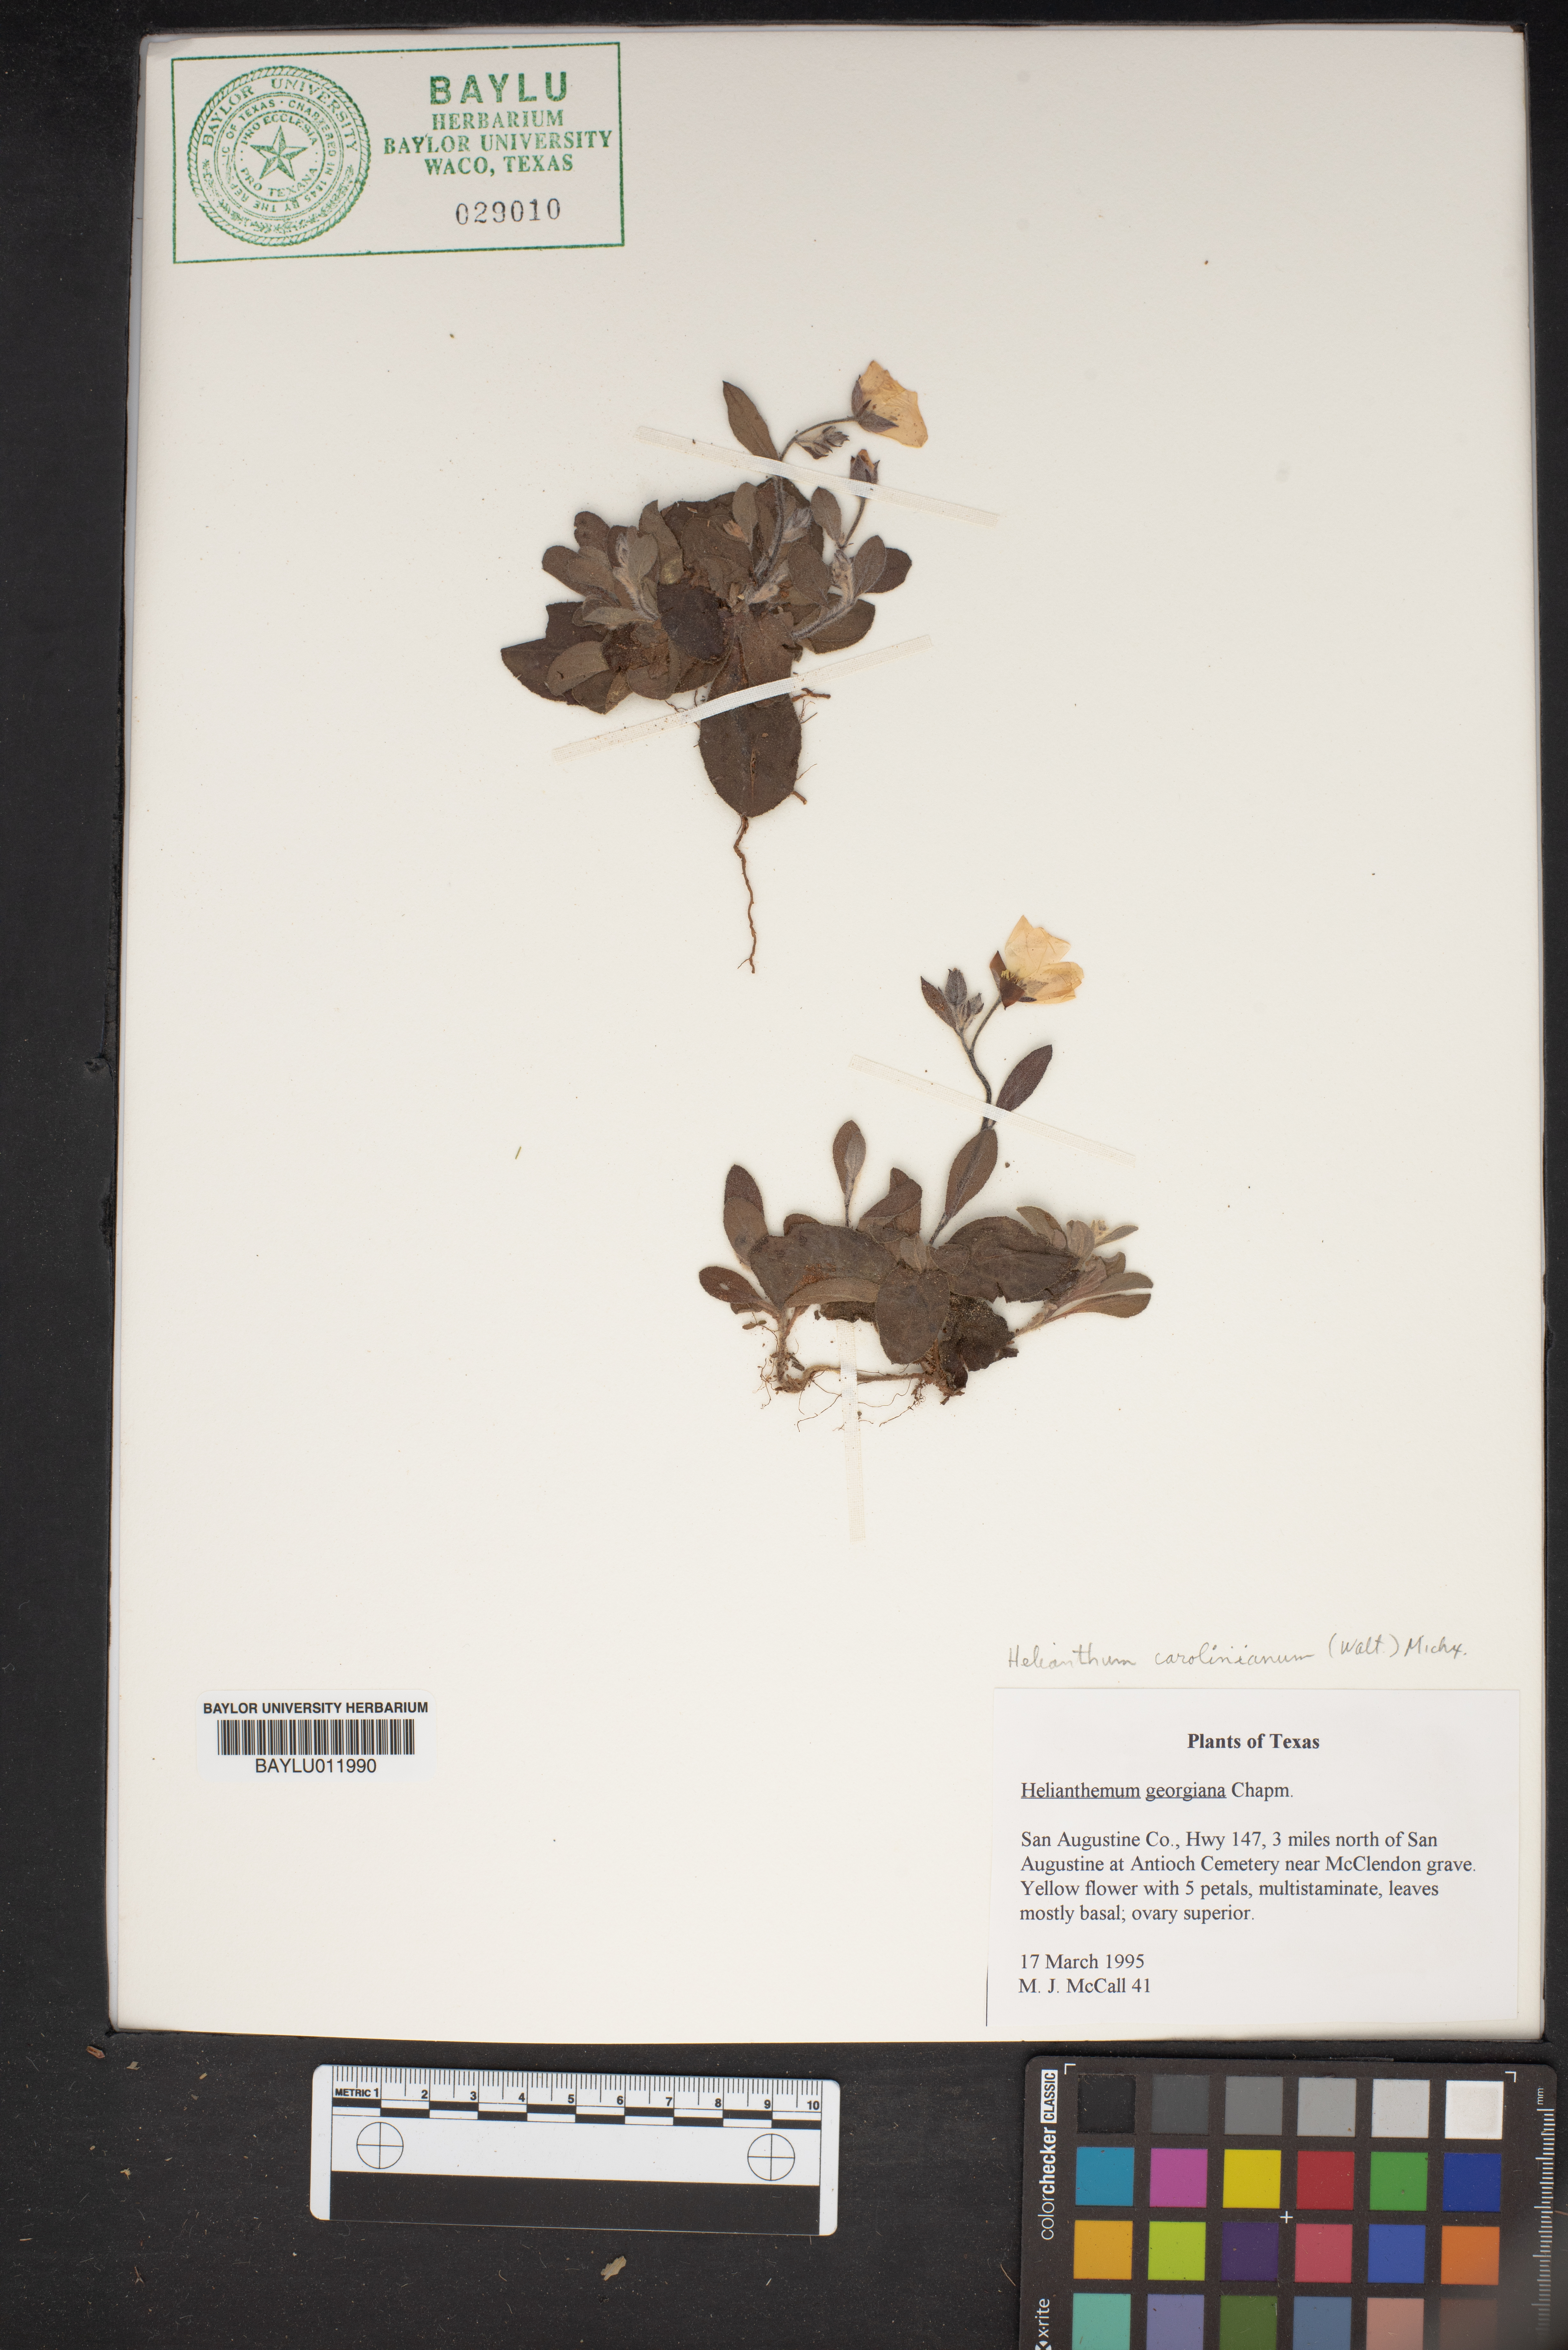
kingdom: Plantae
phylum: Tracheophyta
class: Magnoliopsida
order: Malvales
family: Cistaceae
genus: Crocanthemum
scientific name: Crocanthemum carolinianum
